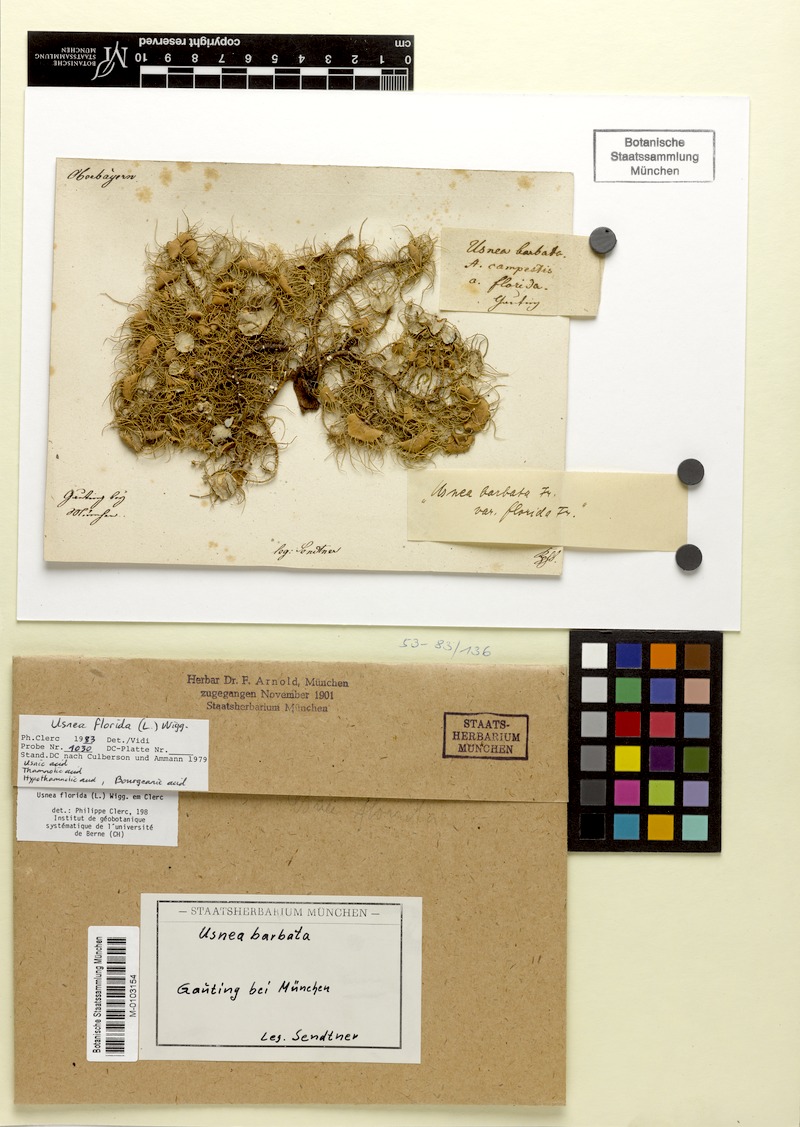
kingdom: Fungi
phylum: Ascomycota
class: Lecanoromycetes
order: Lecanorales
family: Parmeliaceae
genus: Usnea
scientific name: Usnea florida
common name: Witches' whiskers lichen
